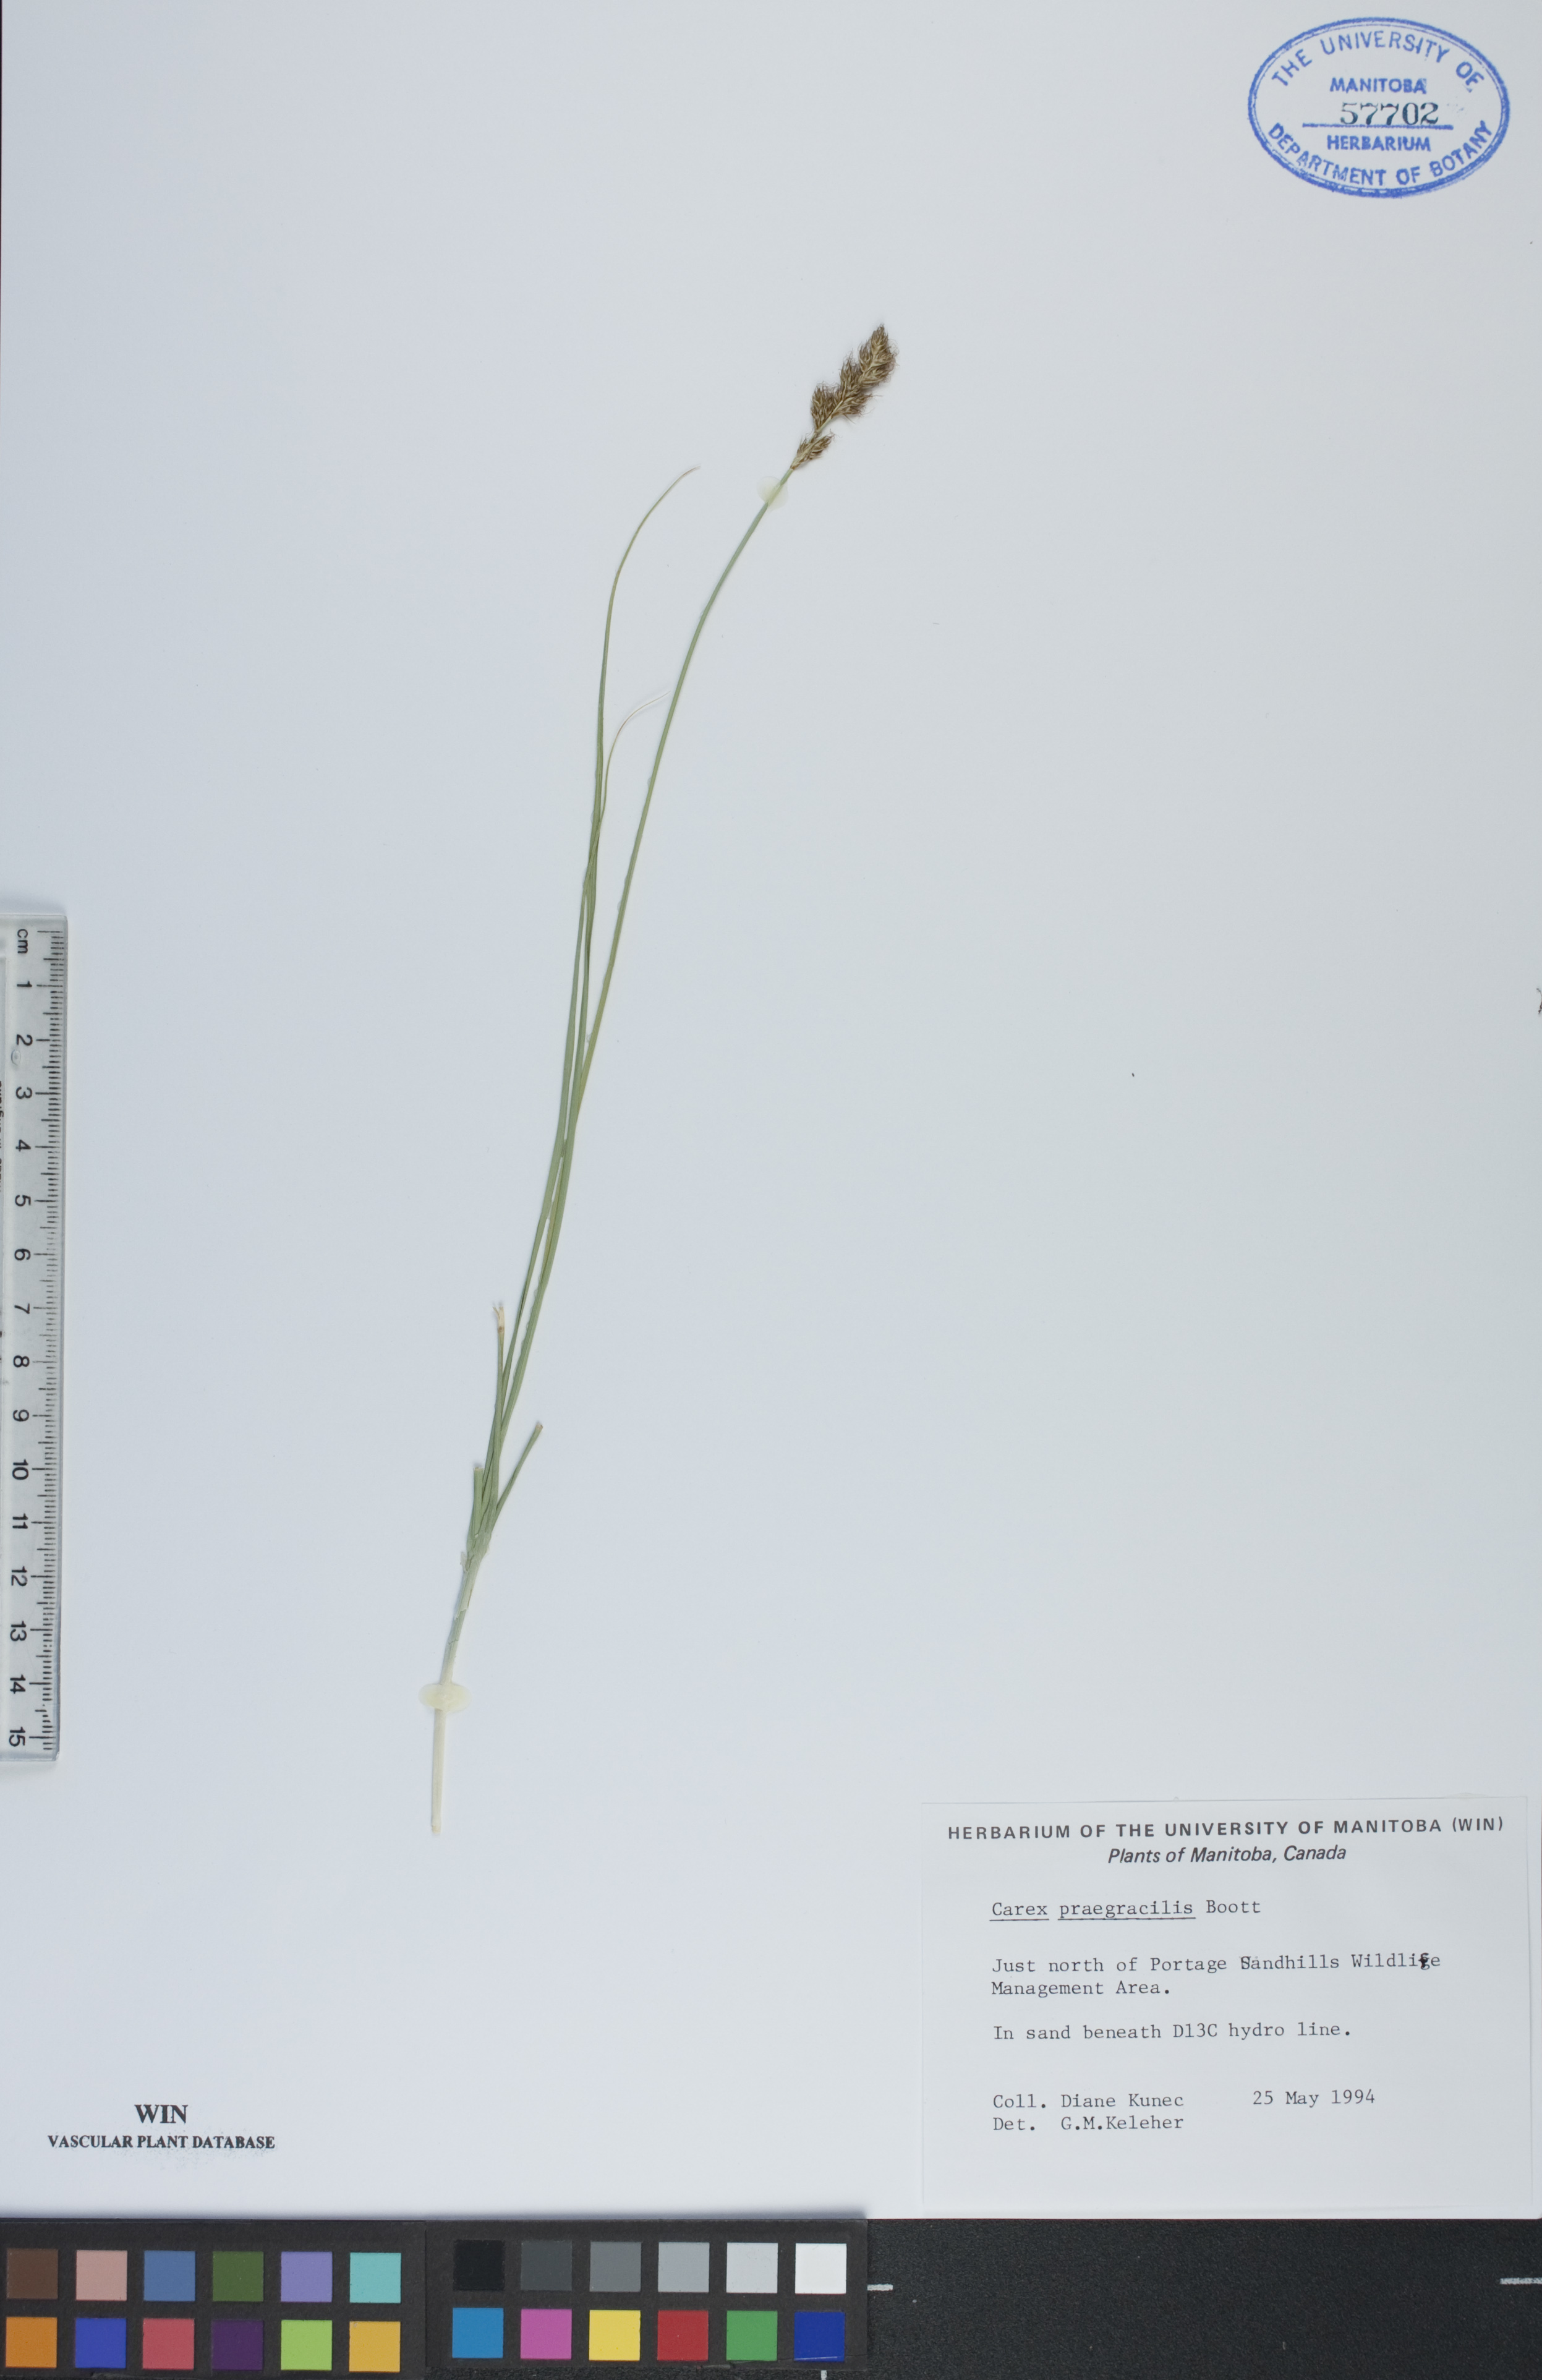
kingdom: Plantae
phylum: Tracheophyta
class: Liliopsida
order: Poales
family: Cyperaceae
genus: Carex
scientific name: Carex praegracilis
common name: Black creeper sedge
